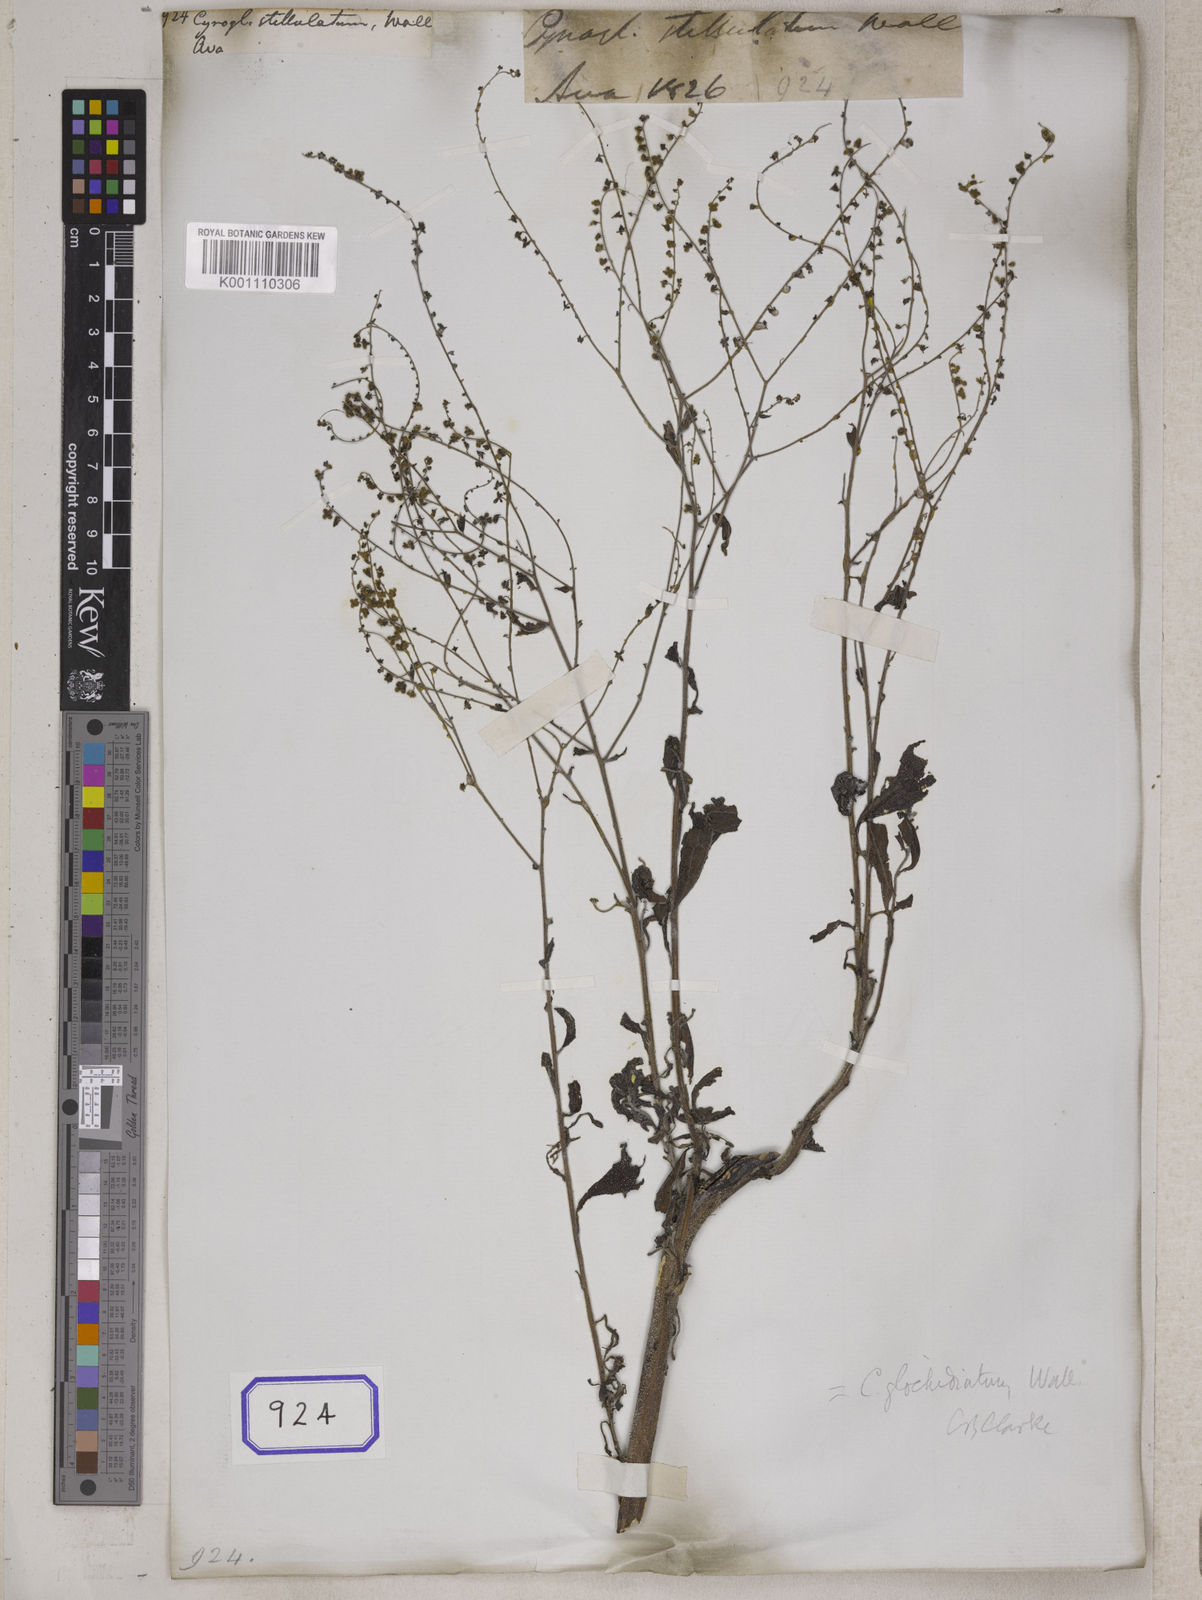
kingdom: Plantae
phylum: Tracheophyta
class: Magnoliopsida
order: Boraginales
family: Boraginaceae
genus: Cynoglossum
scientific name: Cynoglossum
